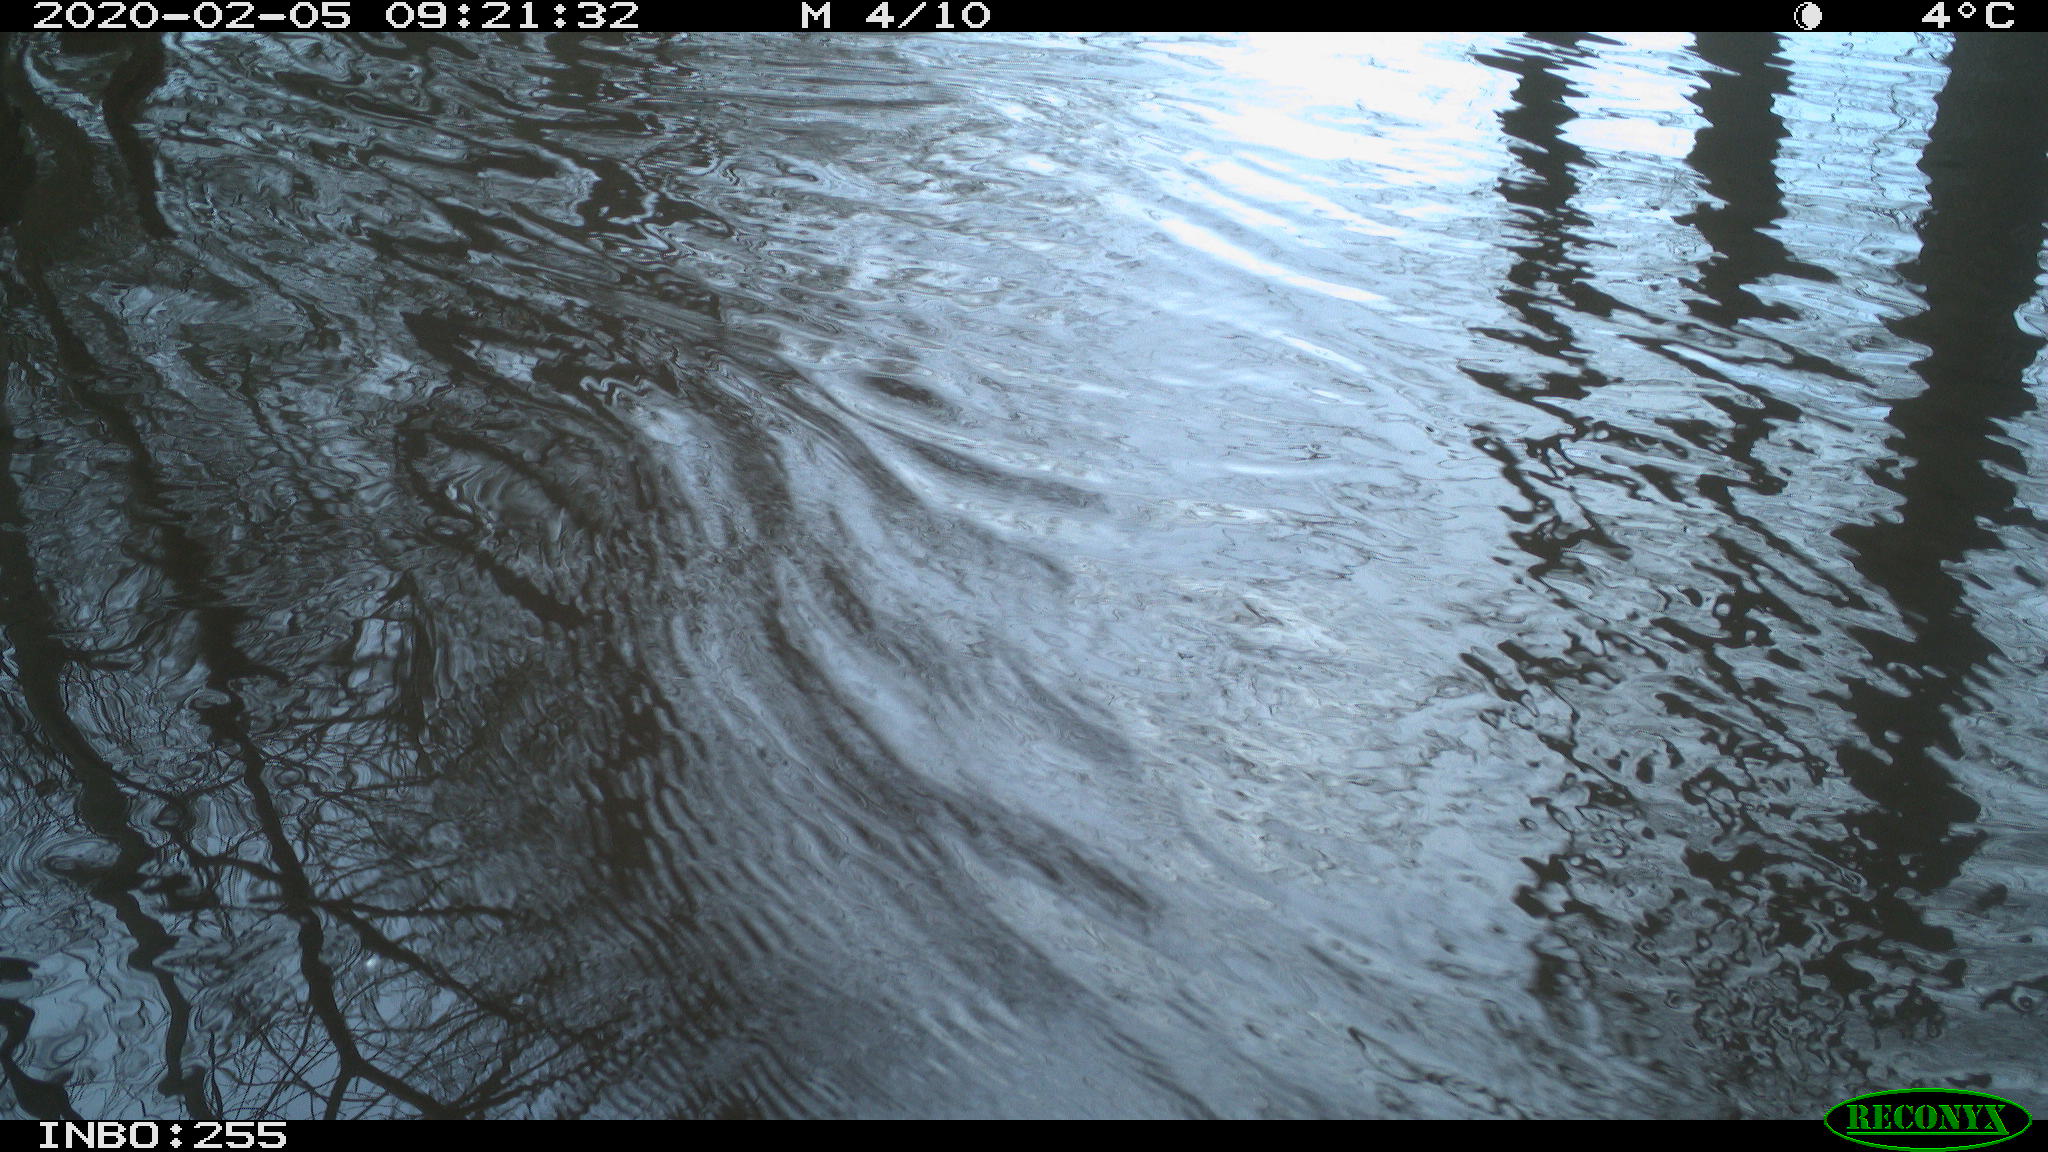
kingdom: Animalia
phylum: Chordata
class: Aves
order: Gruiformes
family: Rallidae
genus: Fulica
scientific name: Fulica atra
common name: Eurasian coot
